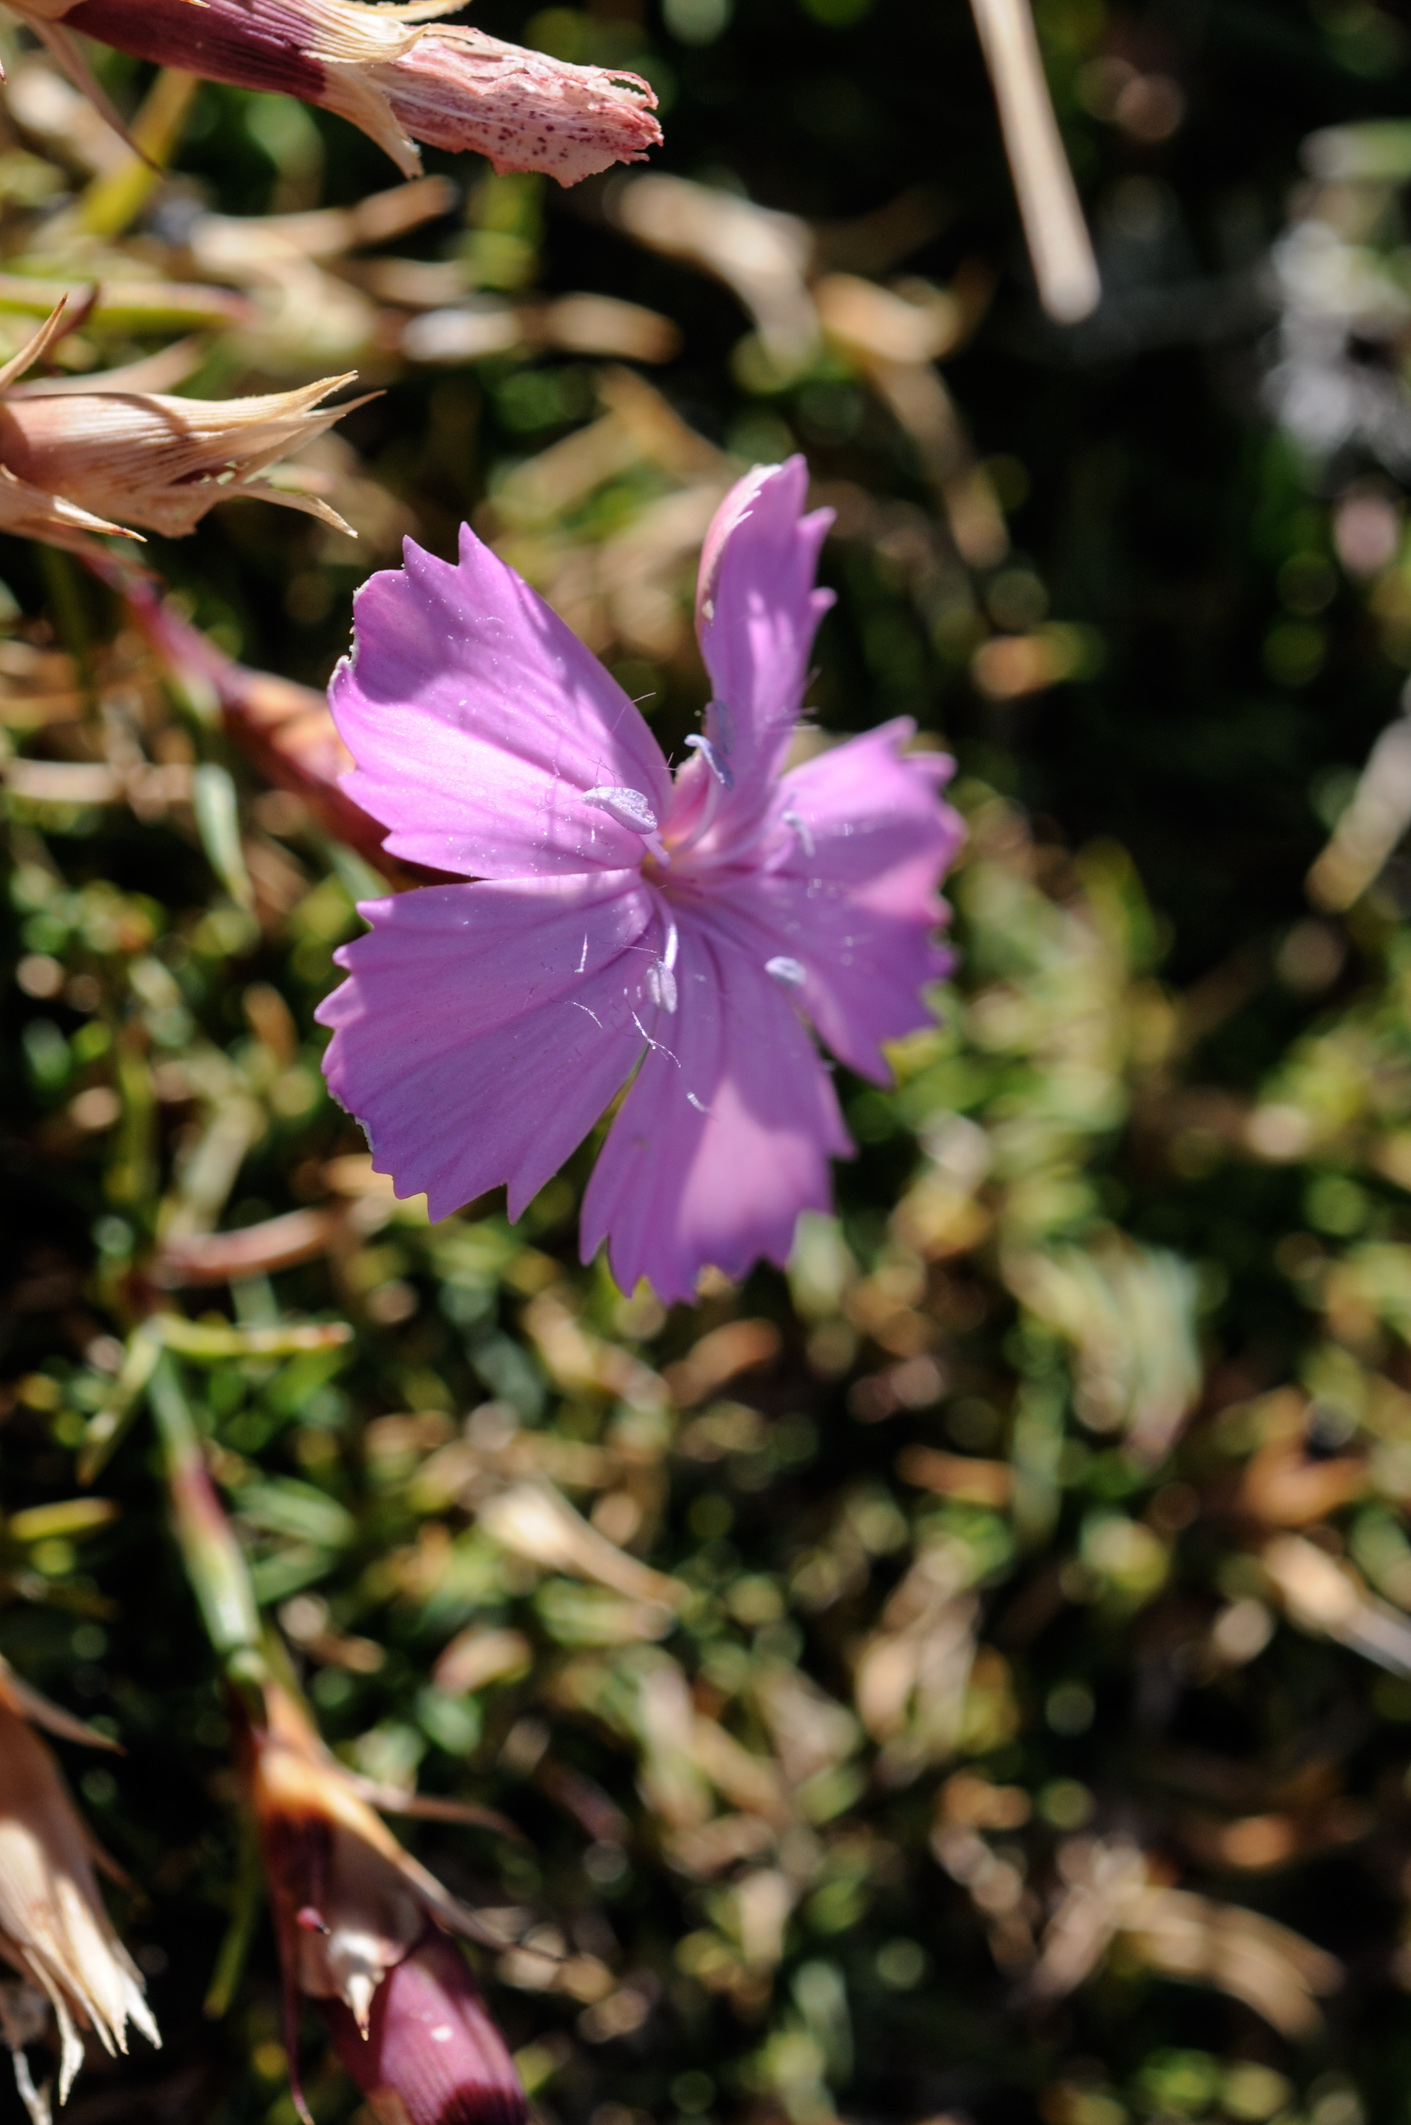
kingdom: Plantae
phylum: Tracheophyta
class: Magnoliopsida
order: Caryophyllales
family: Caryophyllaceae
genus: Dianthus
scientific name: Dianthus tymphresteus
